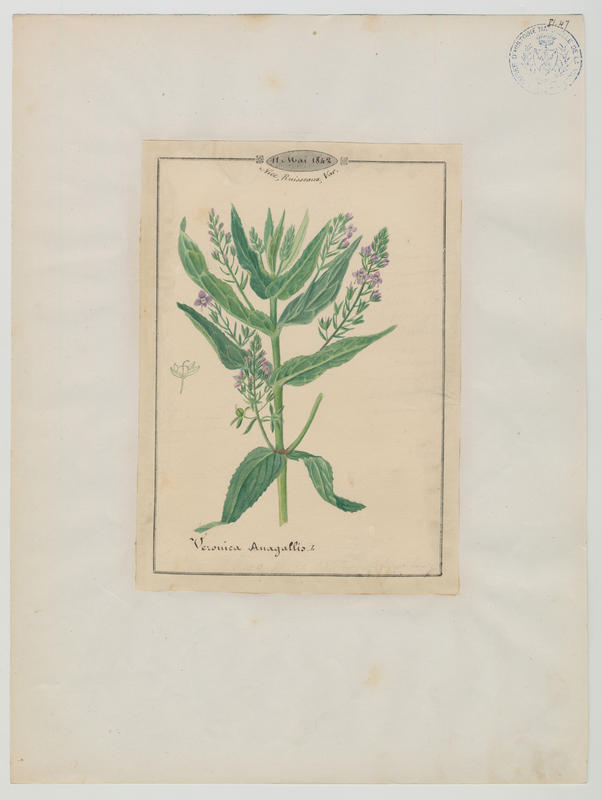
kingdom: Plantae
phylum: Tracheophyta
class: Magnoliopsida
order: Lamiales
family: Plantaginaceae
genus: Veronica
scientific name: Veronica anagallis-aquatica
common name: Water speedwell
